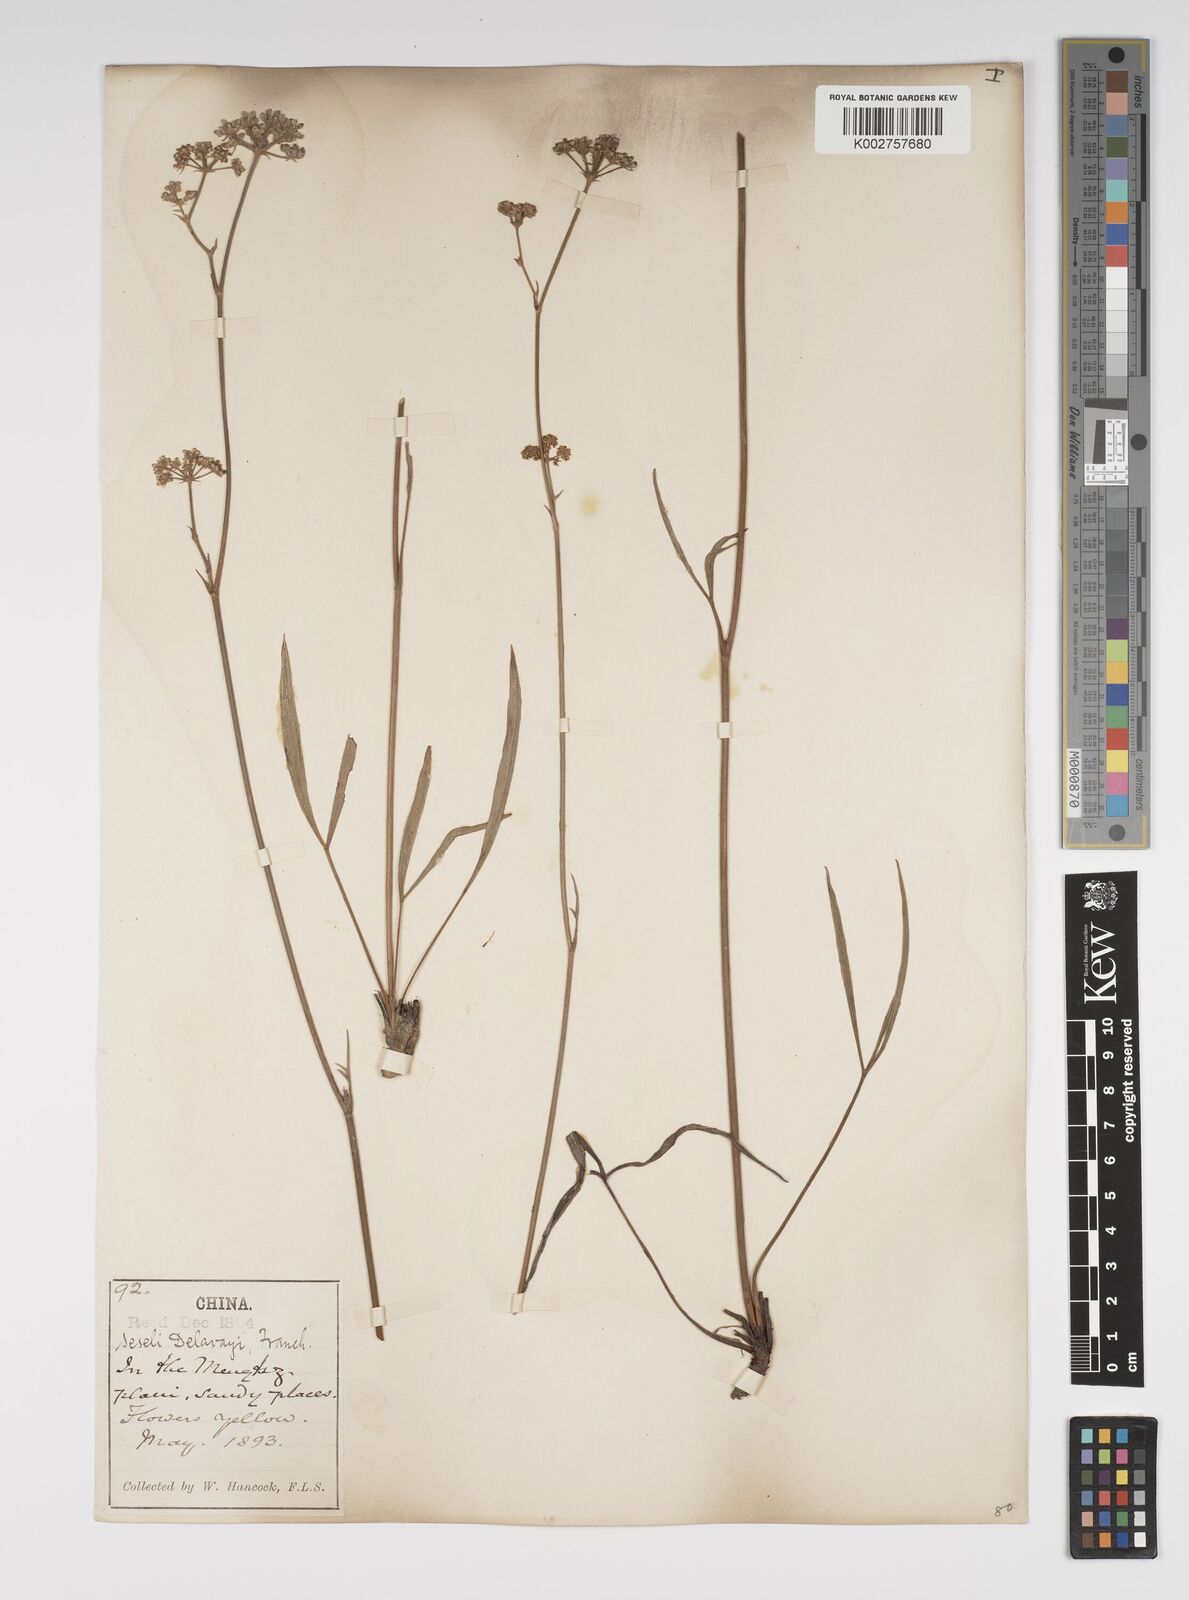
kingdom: Plantae
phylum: Tracheophyta
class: Magnoliopsida
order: Apiales
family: Apiaceae
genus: Seseli
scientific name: Seseli delavayi
